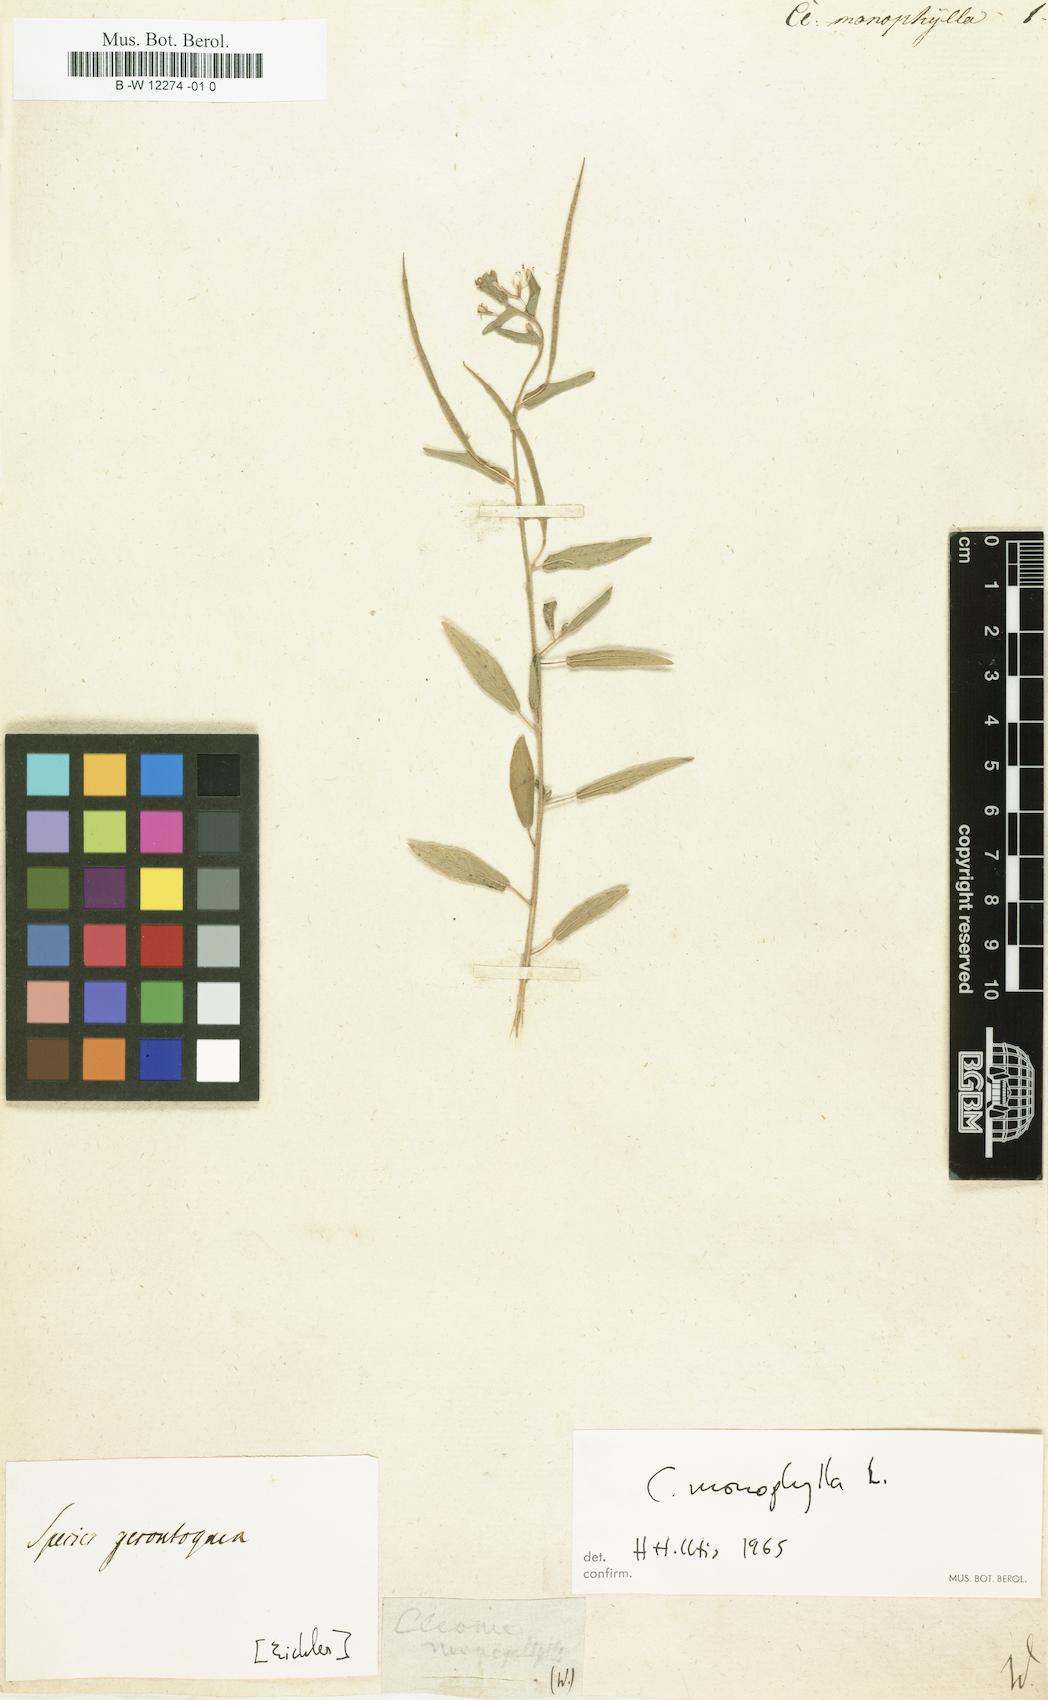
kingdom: Plantae
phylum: Tracheophyta
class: Magnoliopsida
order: Brassicales
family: Cleomaceae
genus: Sieruela
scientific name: Sieruela monophylla
